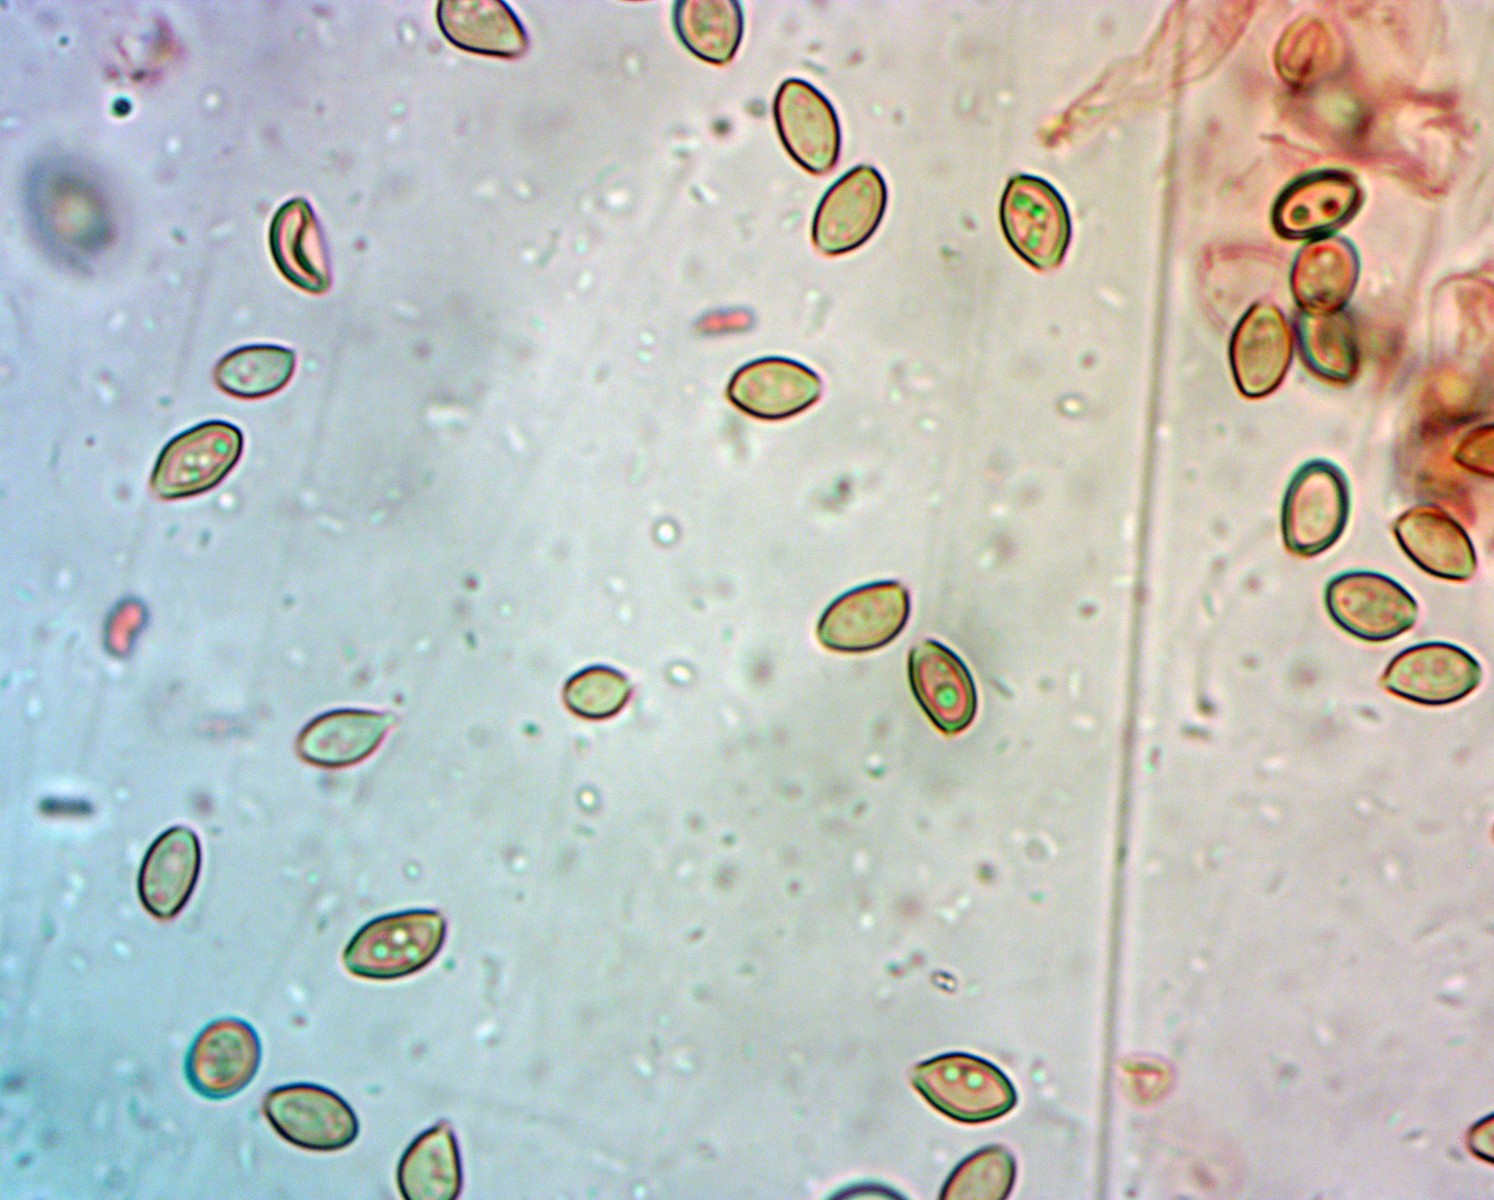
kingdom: Fungi
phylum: Basidiomycota
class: Agaricomycetes
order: Agaricales
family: Strophariaceae
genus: Deconica
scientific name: Deconica inquilina
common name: græs-stråhat
